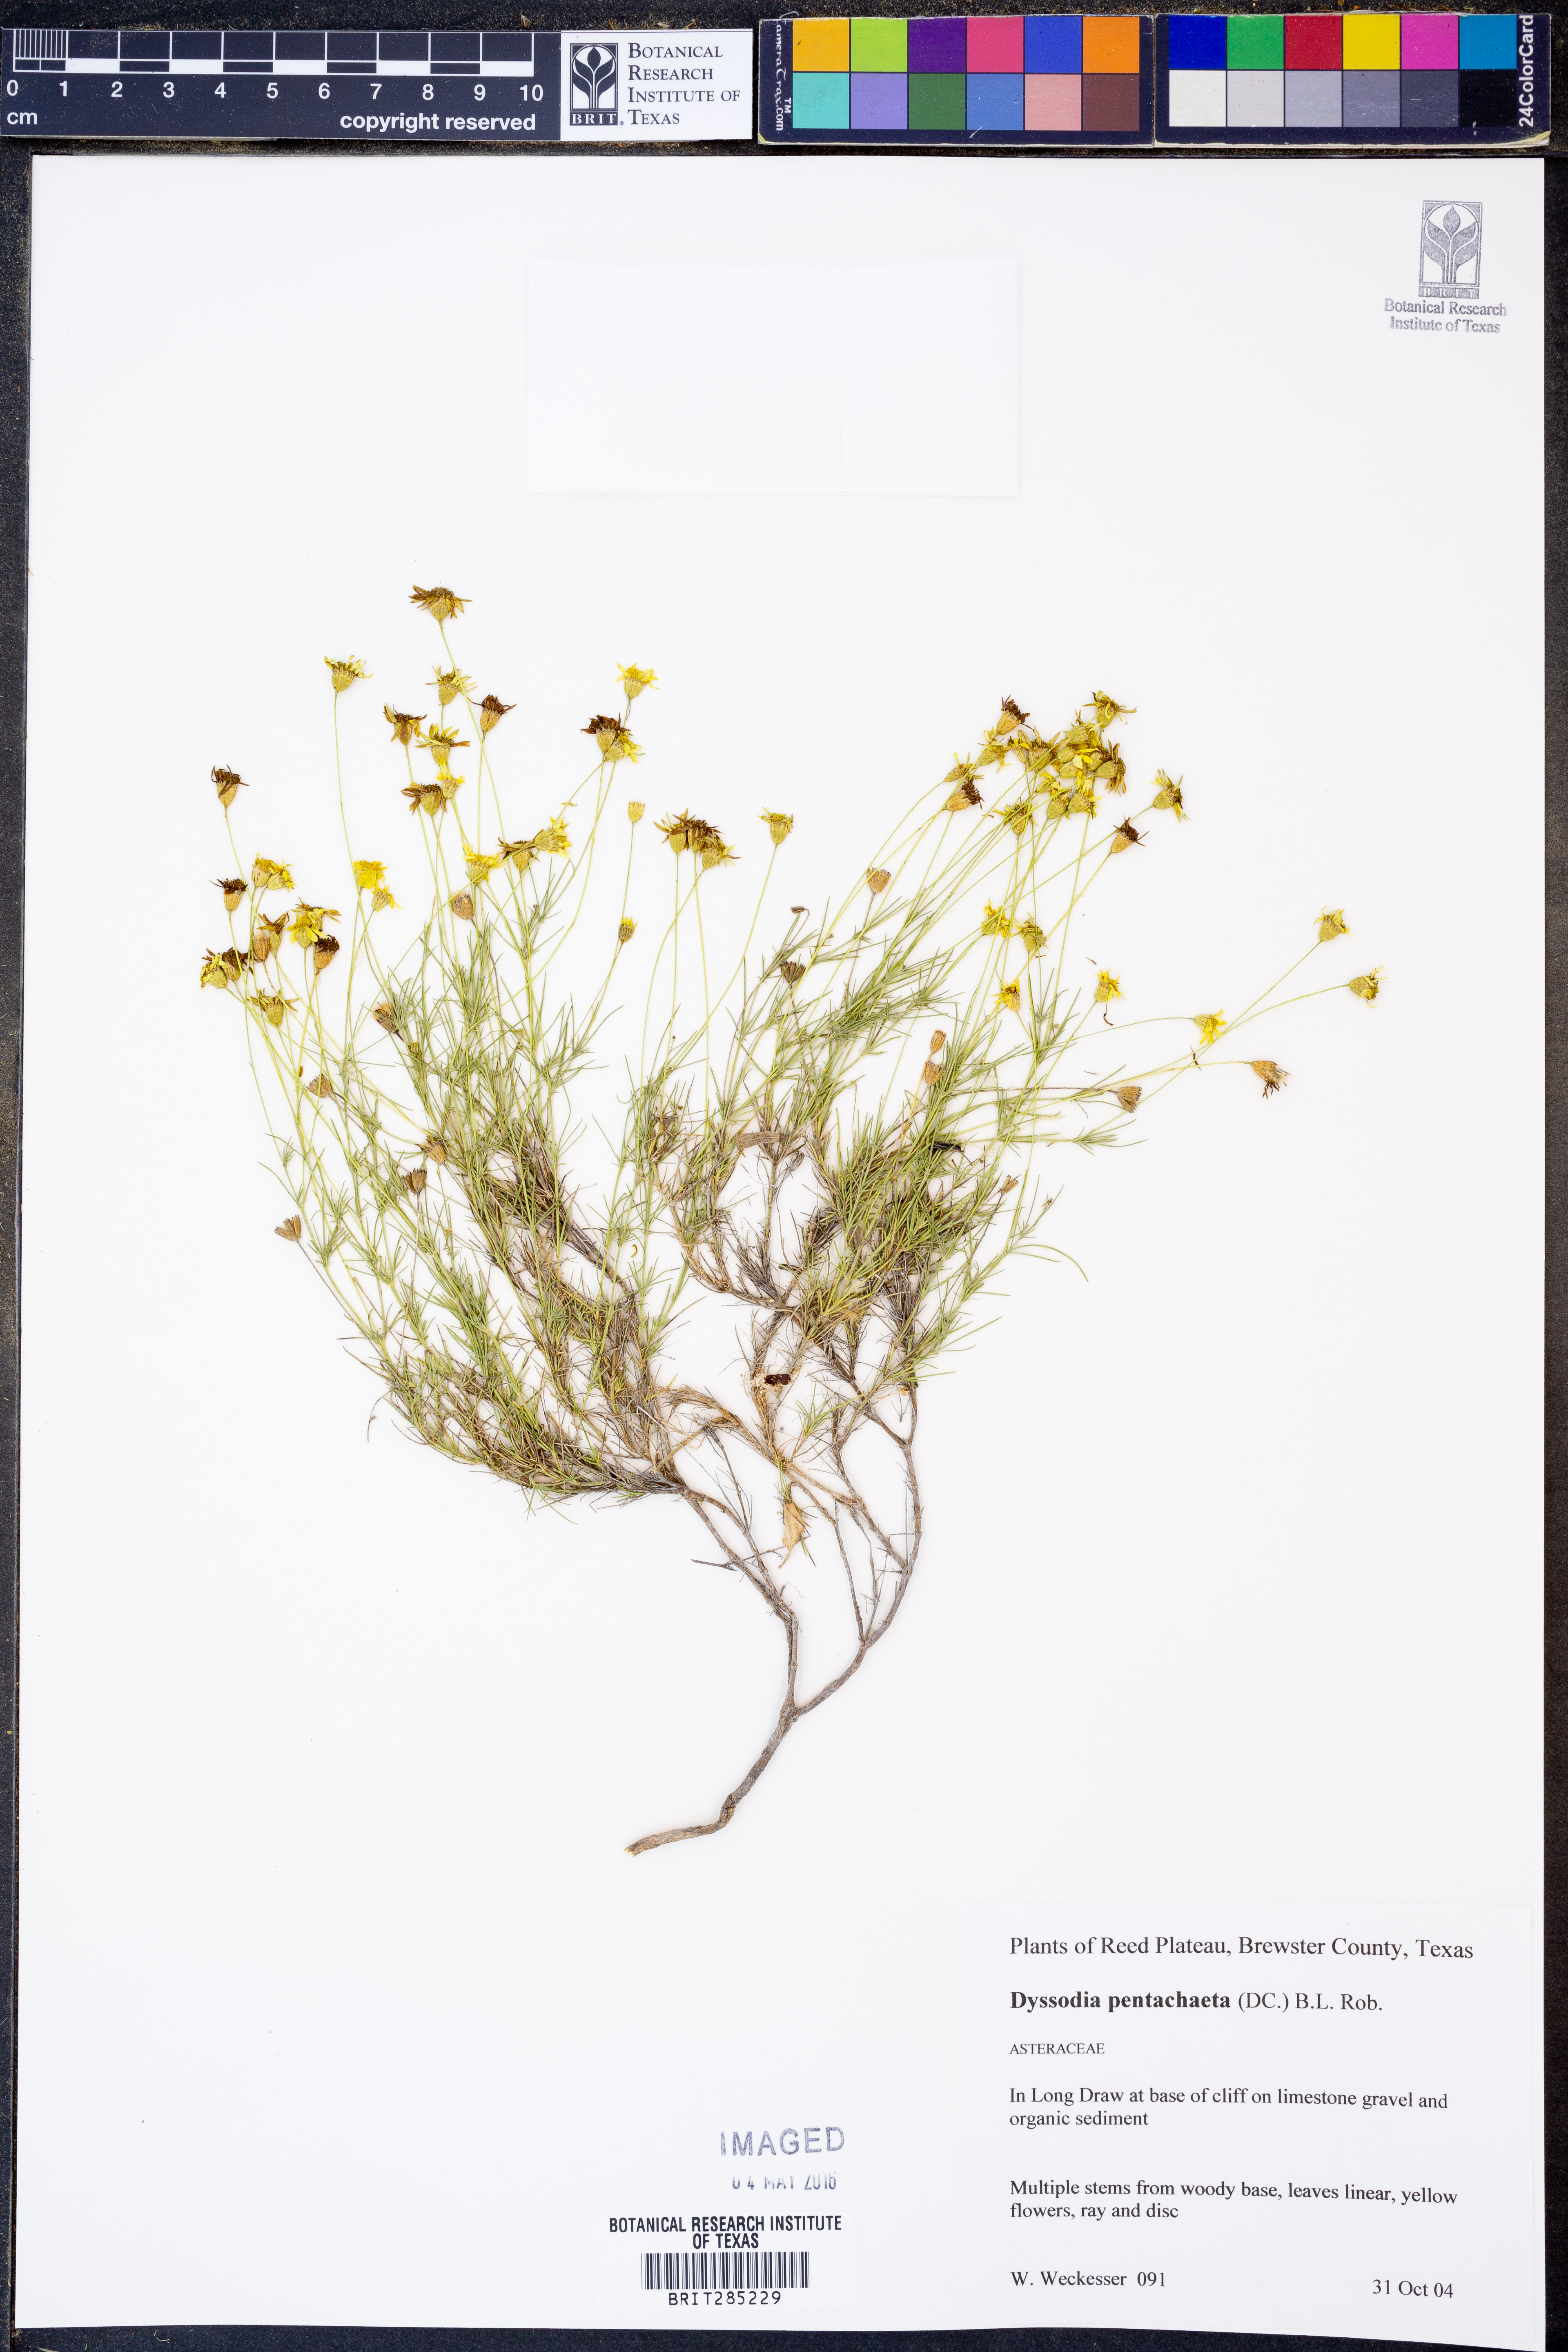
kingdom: Plantae
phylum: Tracheophyta
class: Magnoliopsida
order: Asterales
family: Asteraceae
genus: Thymophylla
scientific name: Thymophylla pentachaeta
